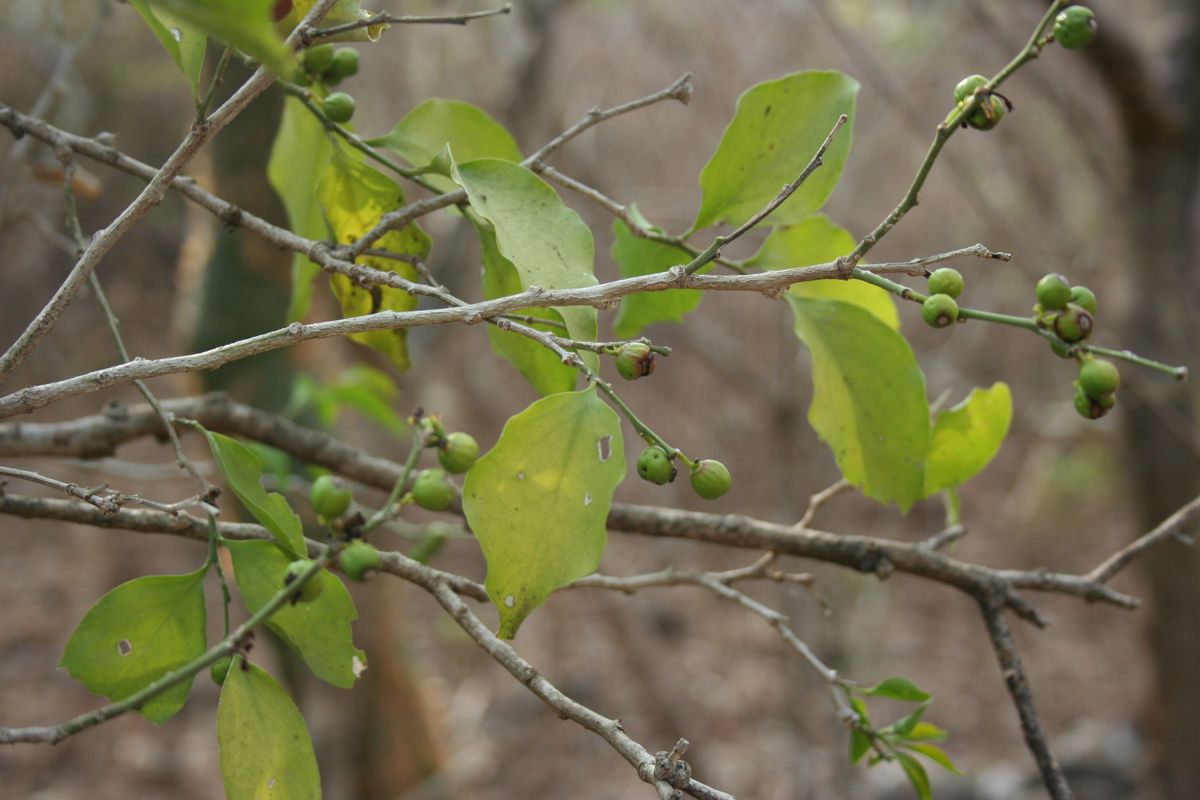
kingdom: Plantae
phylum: Tracheophyta
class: Magnoliopsida
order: Santalales
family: Schoepfiaceae
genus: Schoepfia
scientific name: Schoepfia schreberi
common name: Gulf graytwig
